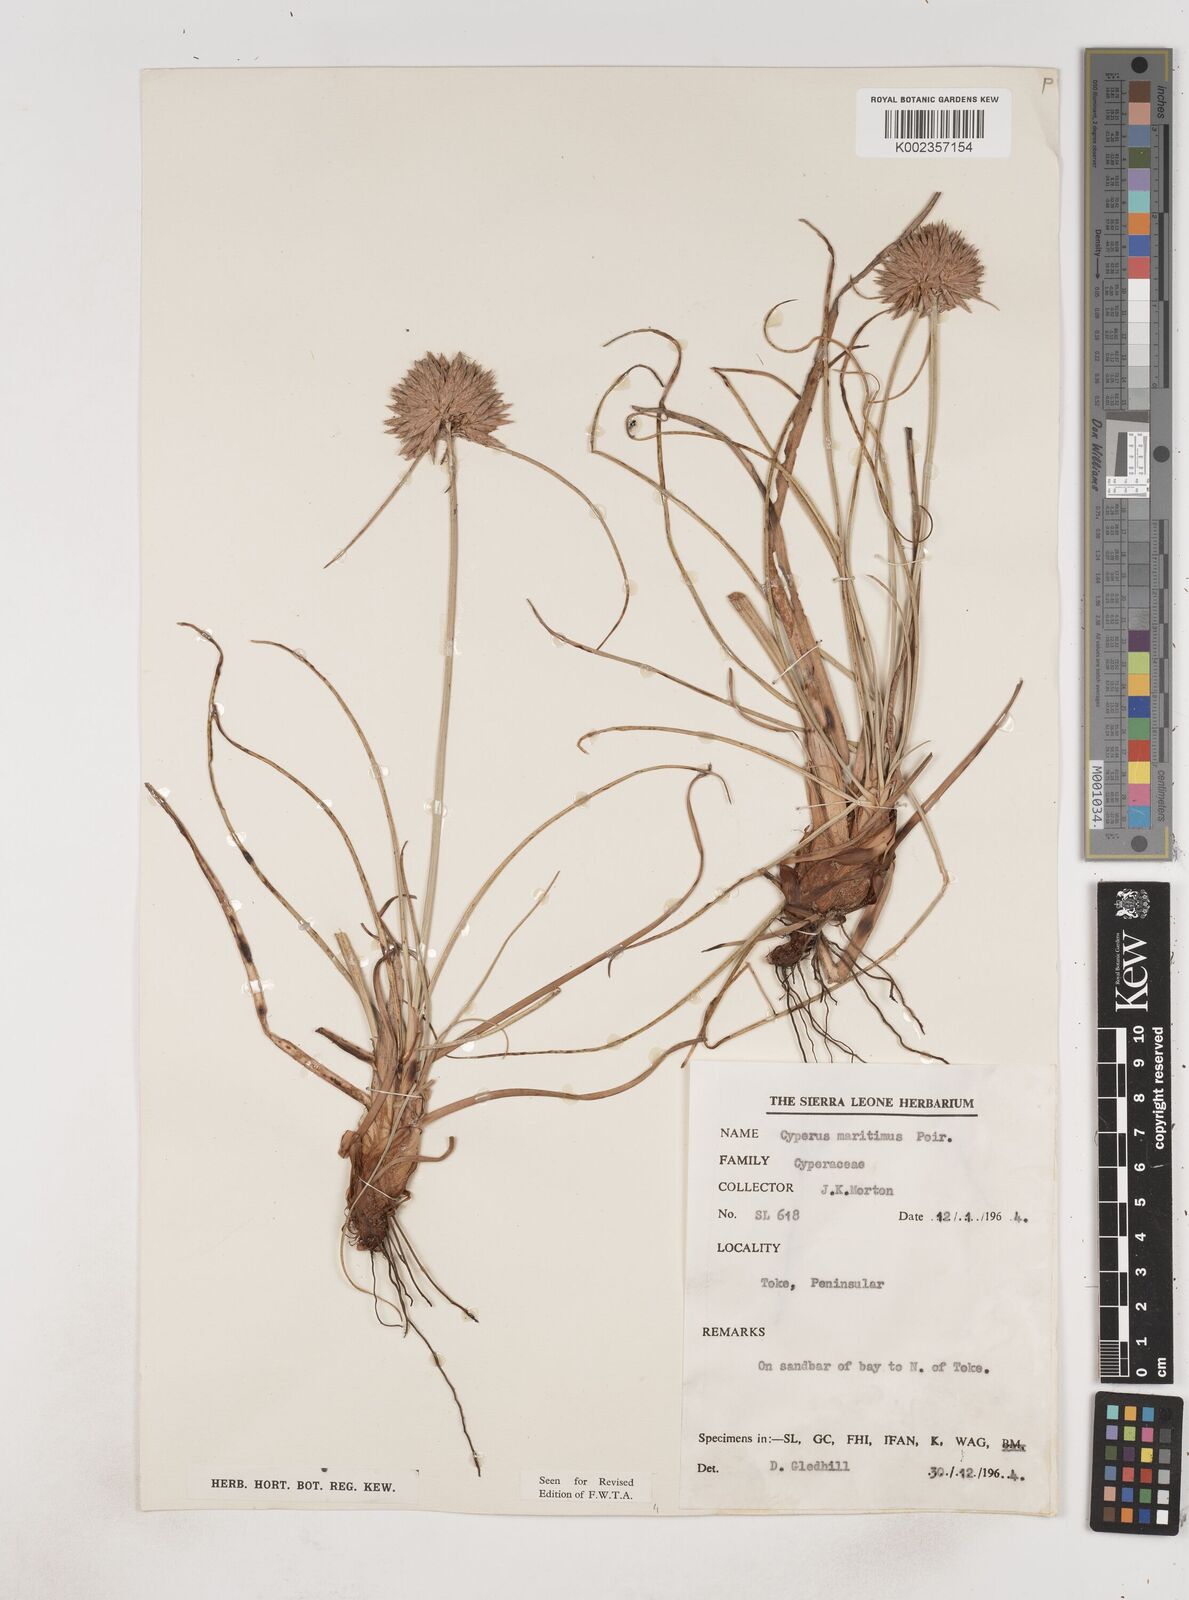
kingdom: Plantae
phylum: Tracheophyta
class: Liliopsida
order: Poales
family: Cyperaceae
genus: Cyperus
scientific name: Cyperus crassipes
